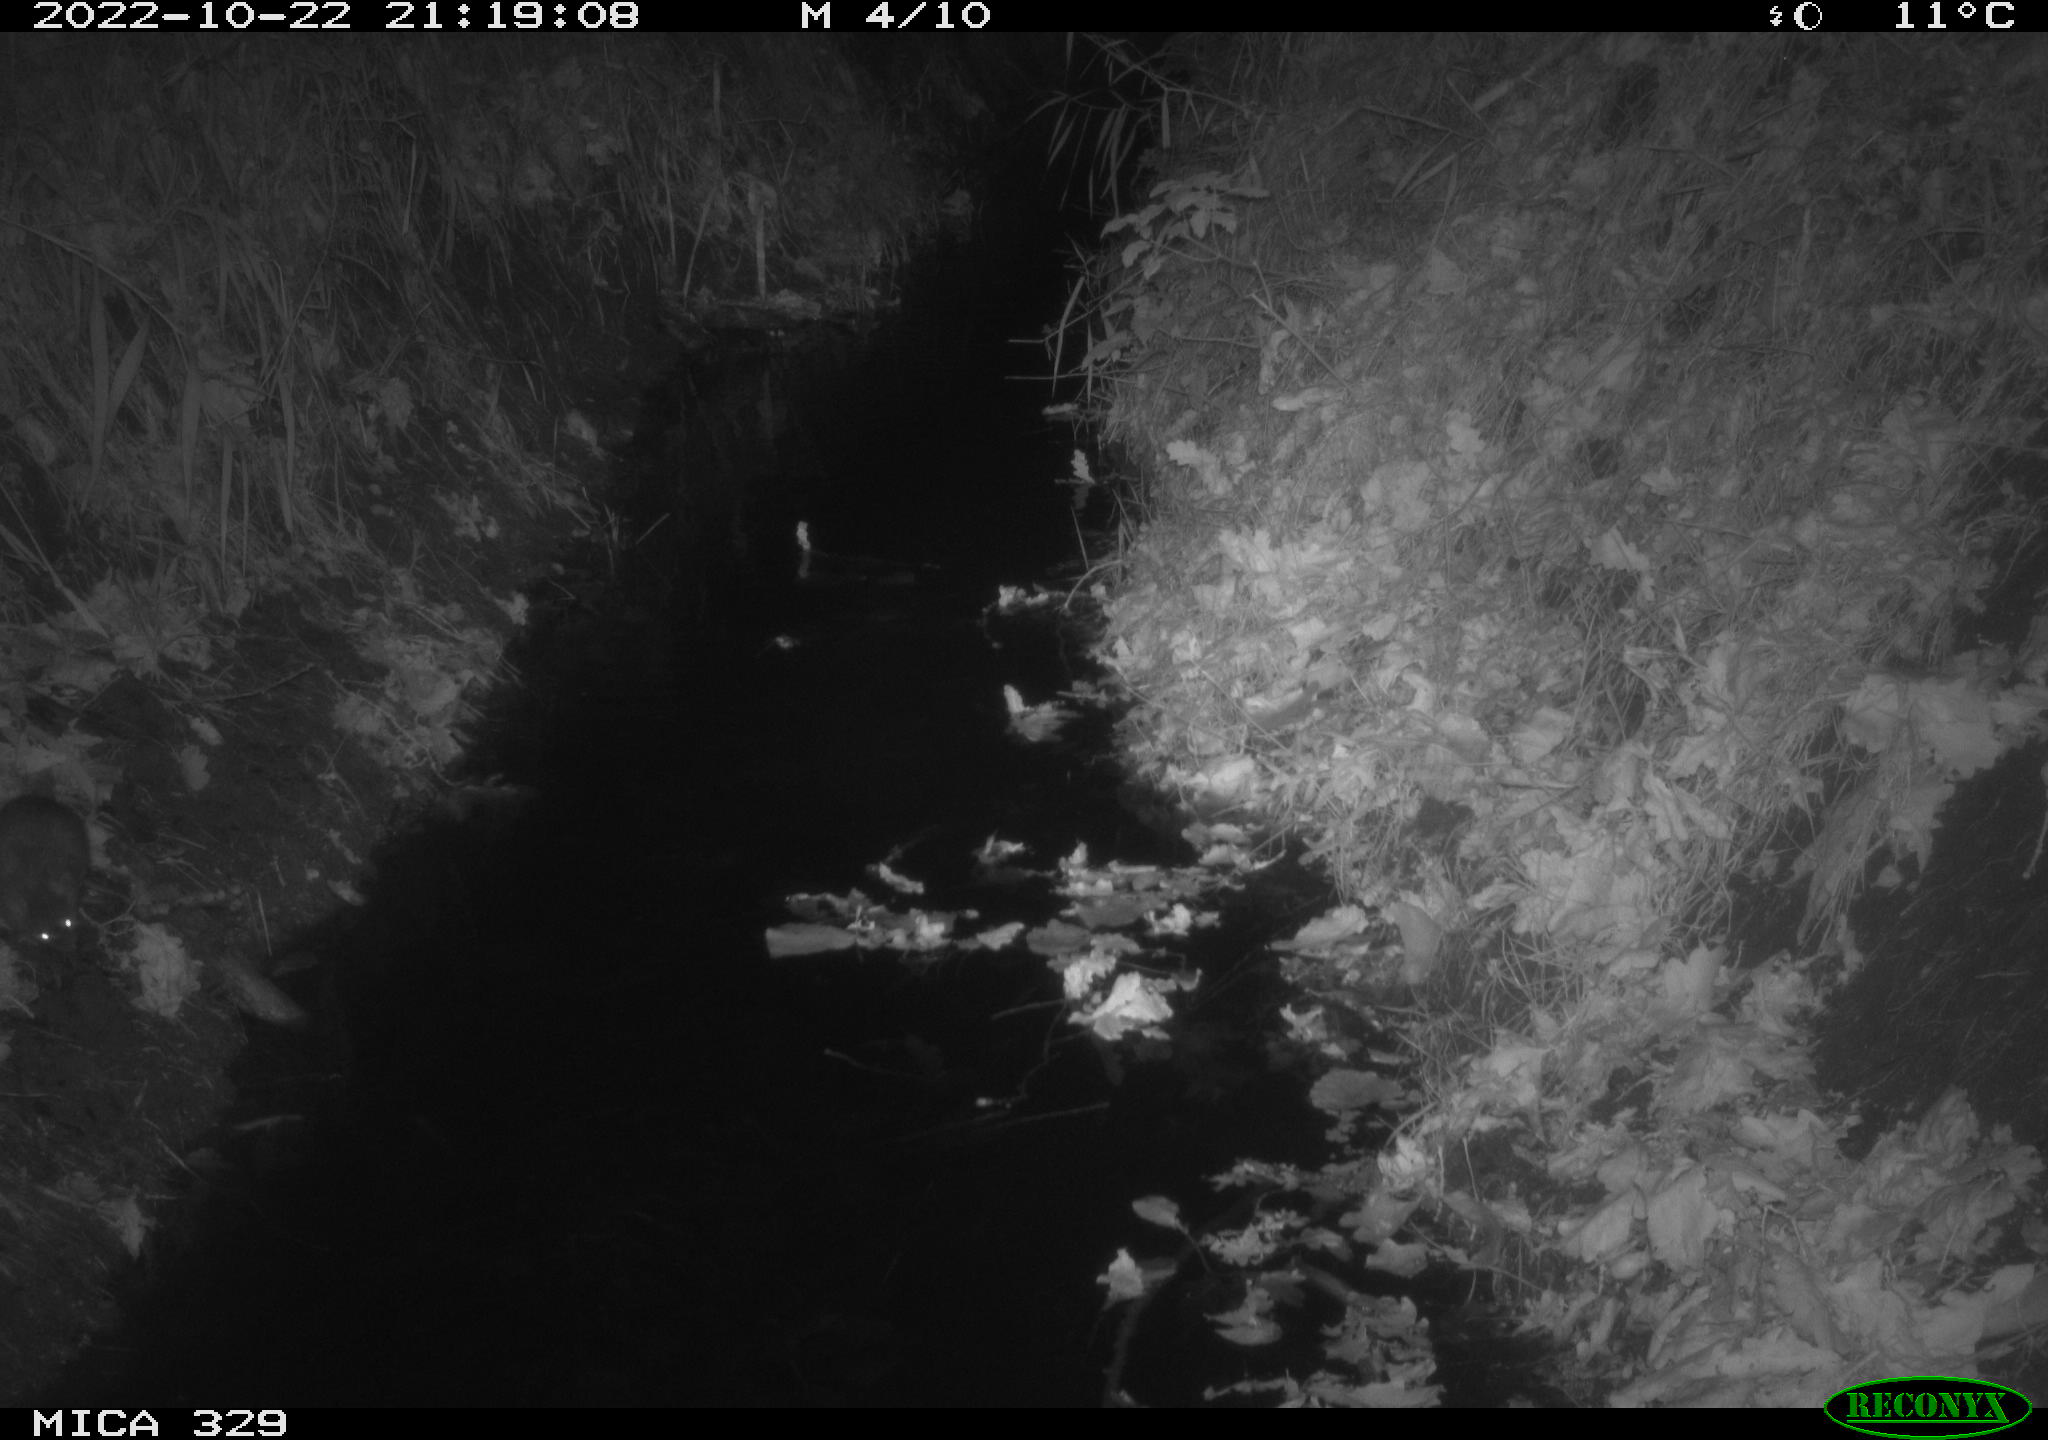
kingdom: Animalia
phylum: Chordata
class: Mammalia
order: Rodentia
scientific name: Rodentia
